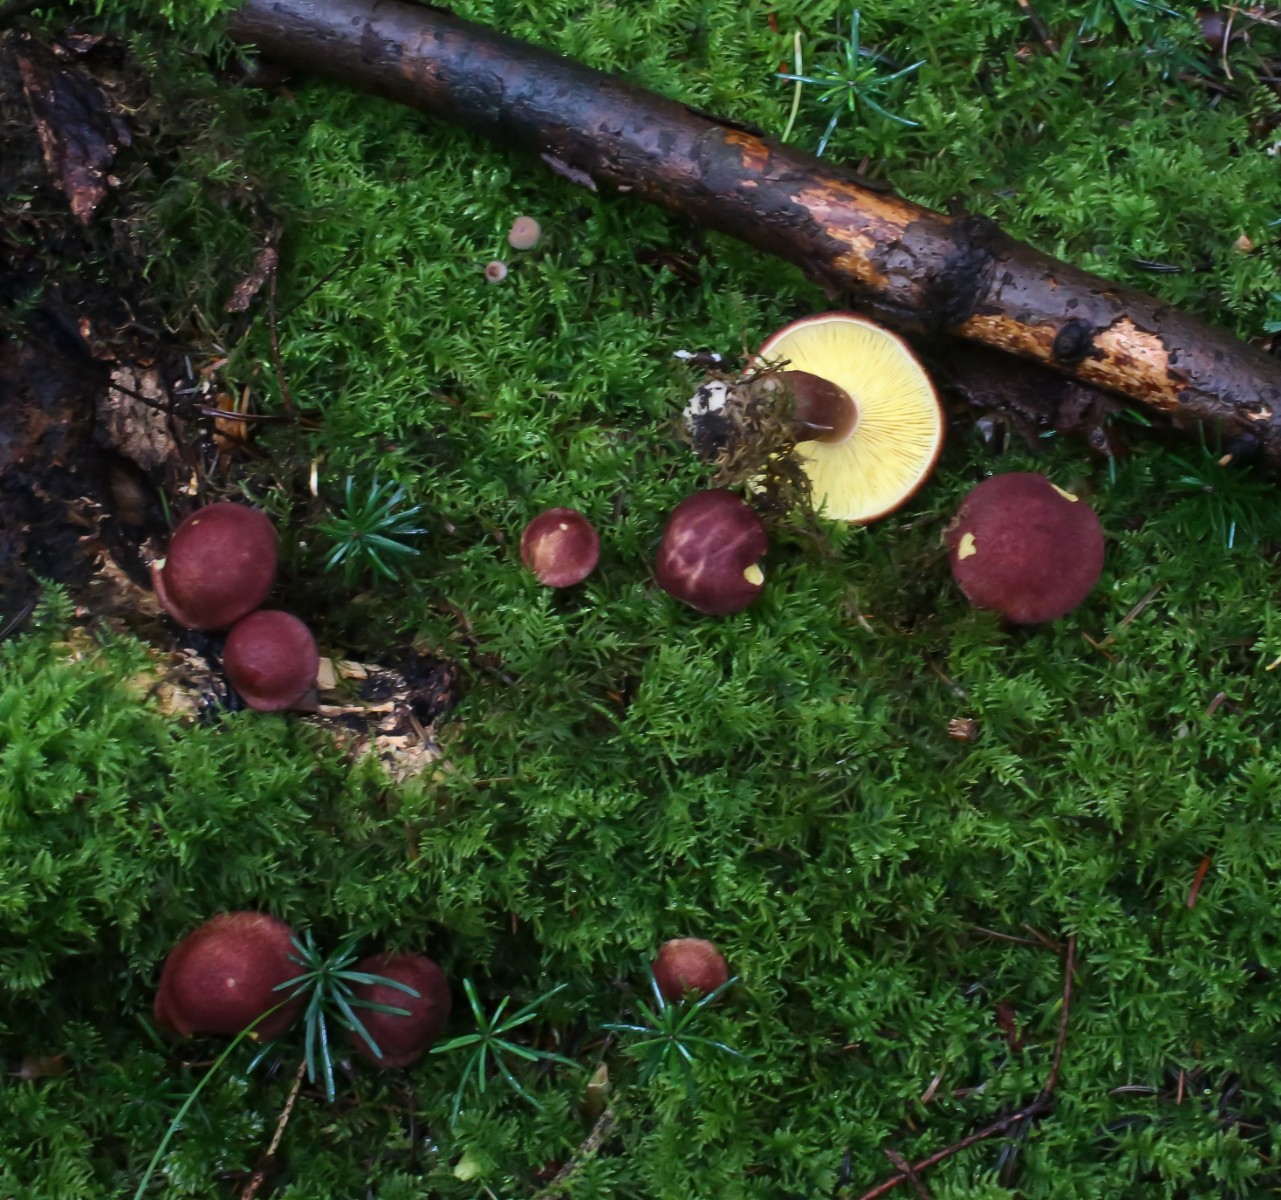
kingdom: Fungi
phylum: Basidiomycota
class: Agaricomycetes
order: Agaricales
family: Tricholomataceae
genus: Tricholomopsis
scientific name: Tricholomopsis rutilans
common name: purpur-væbnerhat
